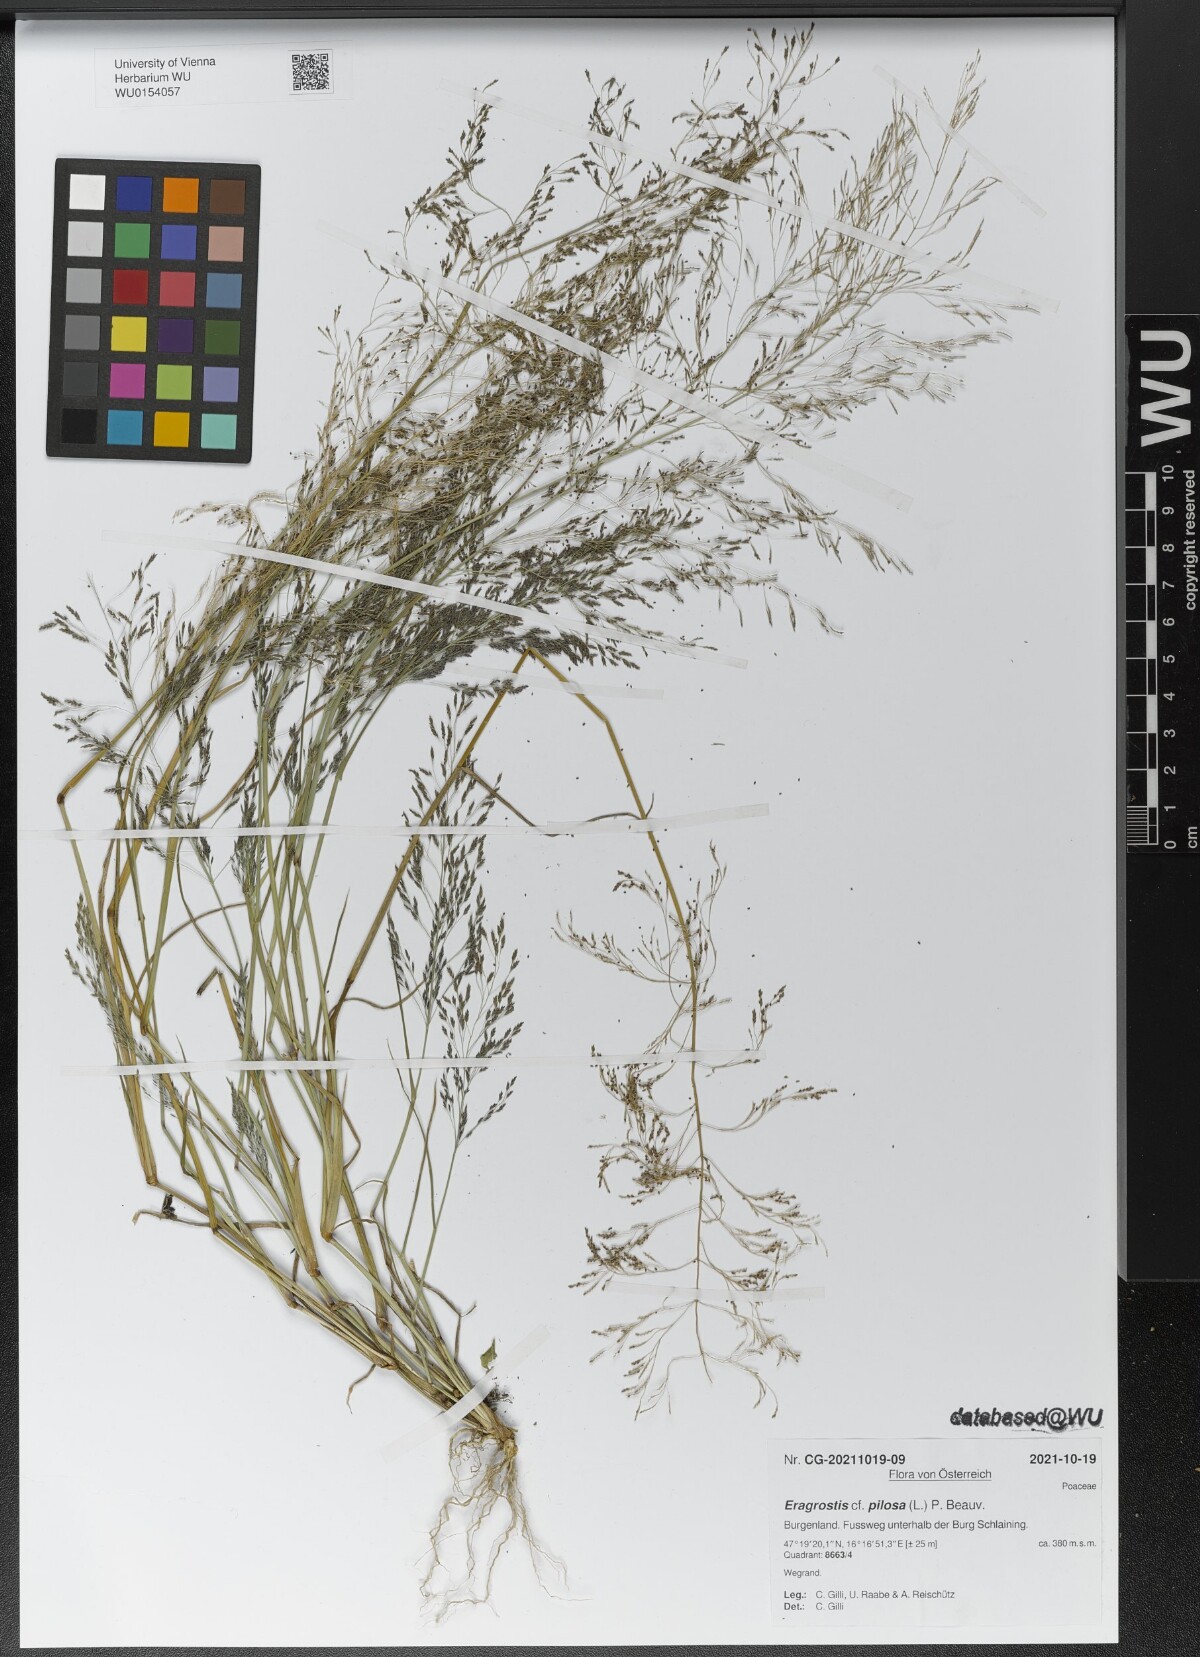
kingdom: Plantae
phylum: Tracheophyta
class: Liliopsida
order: Poales
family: Poaceae
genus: Eragrostis
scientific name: Eragrostis pilosa
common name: Indian lovegrass
